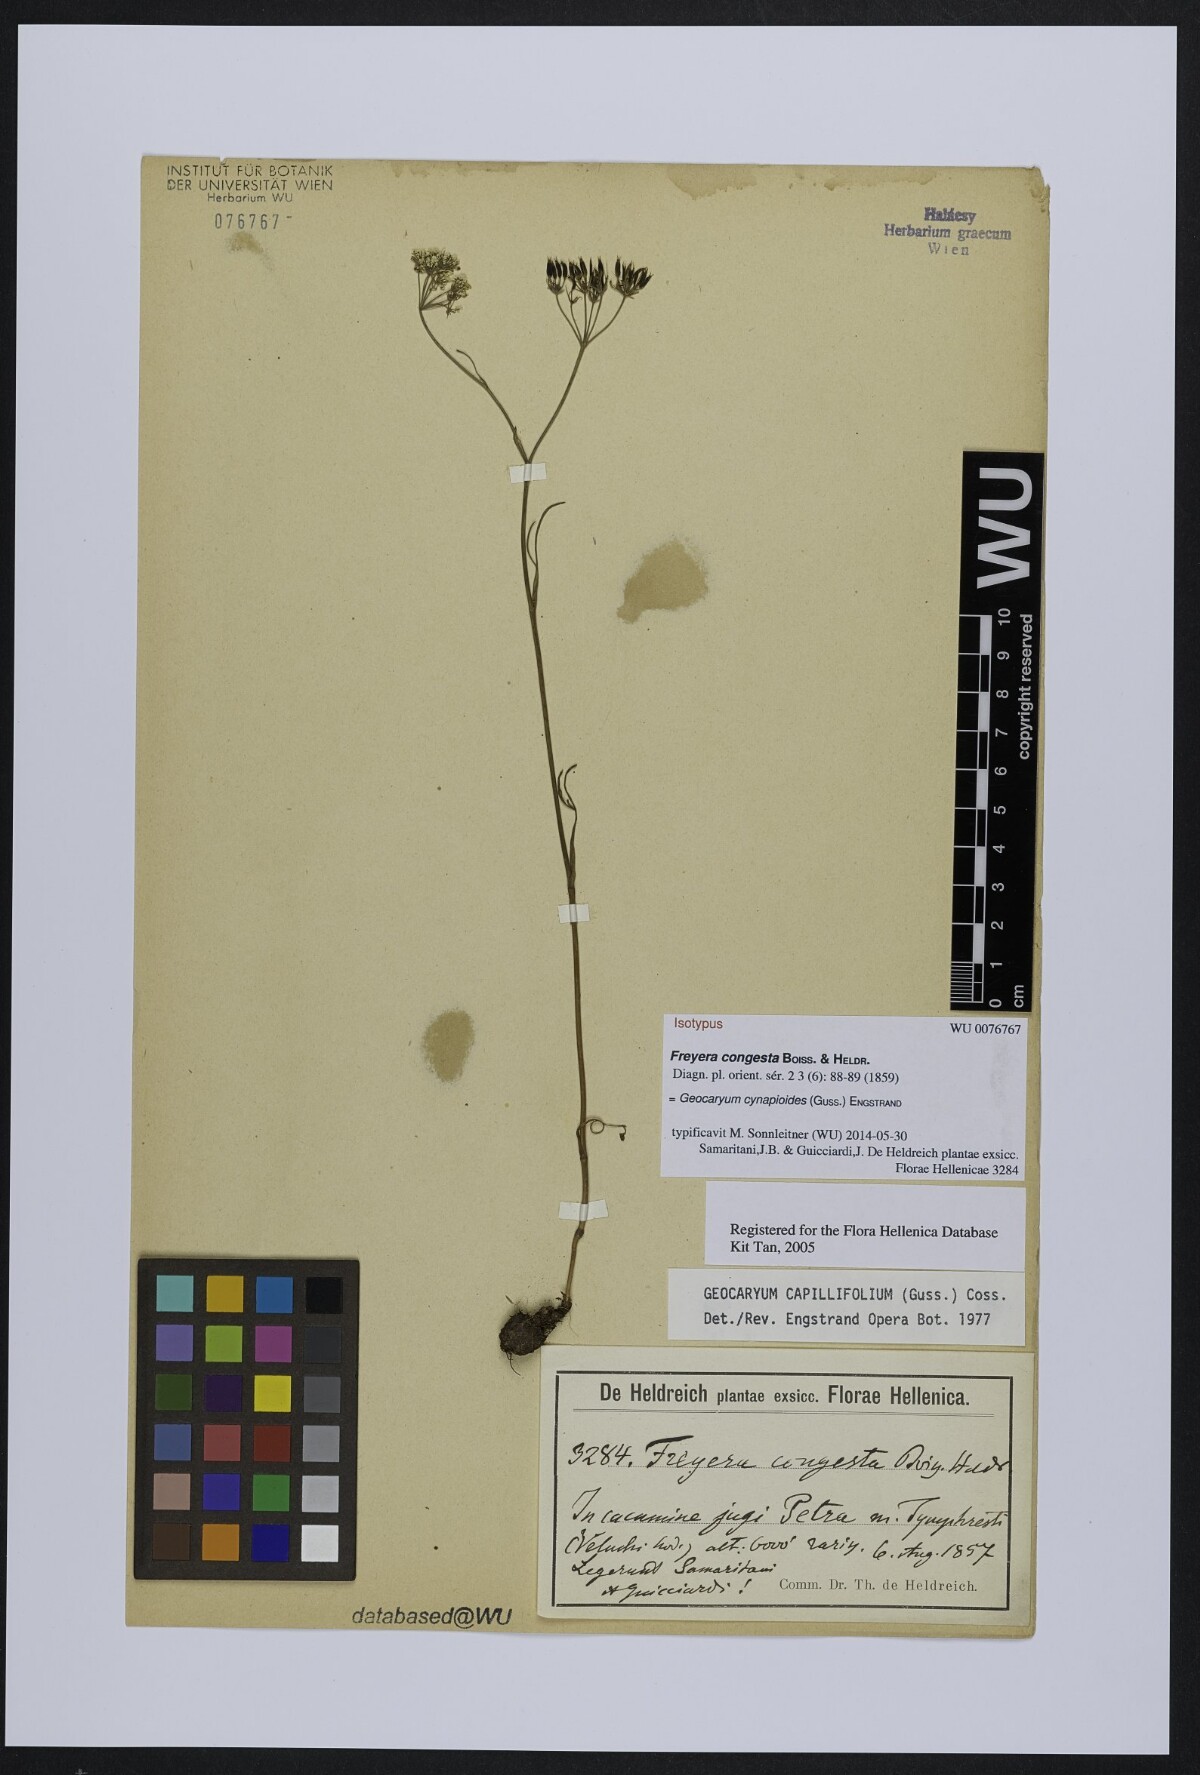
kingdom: Plantae
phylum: Tracheophyta
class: Magnoliopsida
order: Apiales
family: Apiaceae
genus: Geocaryum
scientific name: Geocaryum capillifolium
